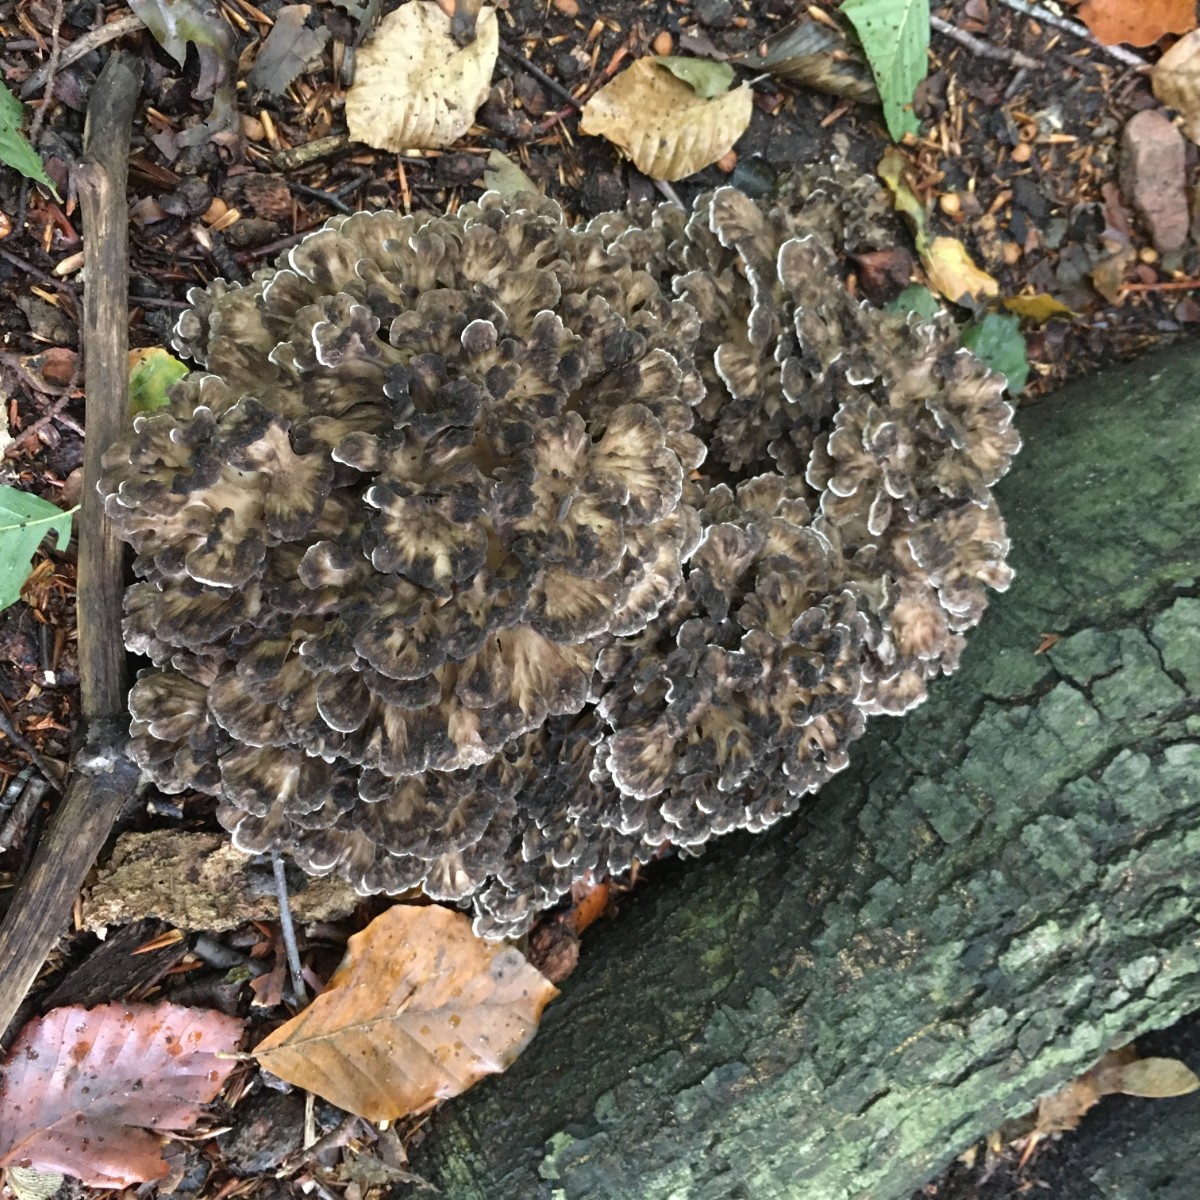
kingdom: Fungi
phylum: Basidiomycota
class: Agaricomycetes
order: Polyporales
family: Grifolaceae
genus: Grifola
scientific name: Grifola frondosa
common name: tueporesvamp
